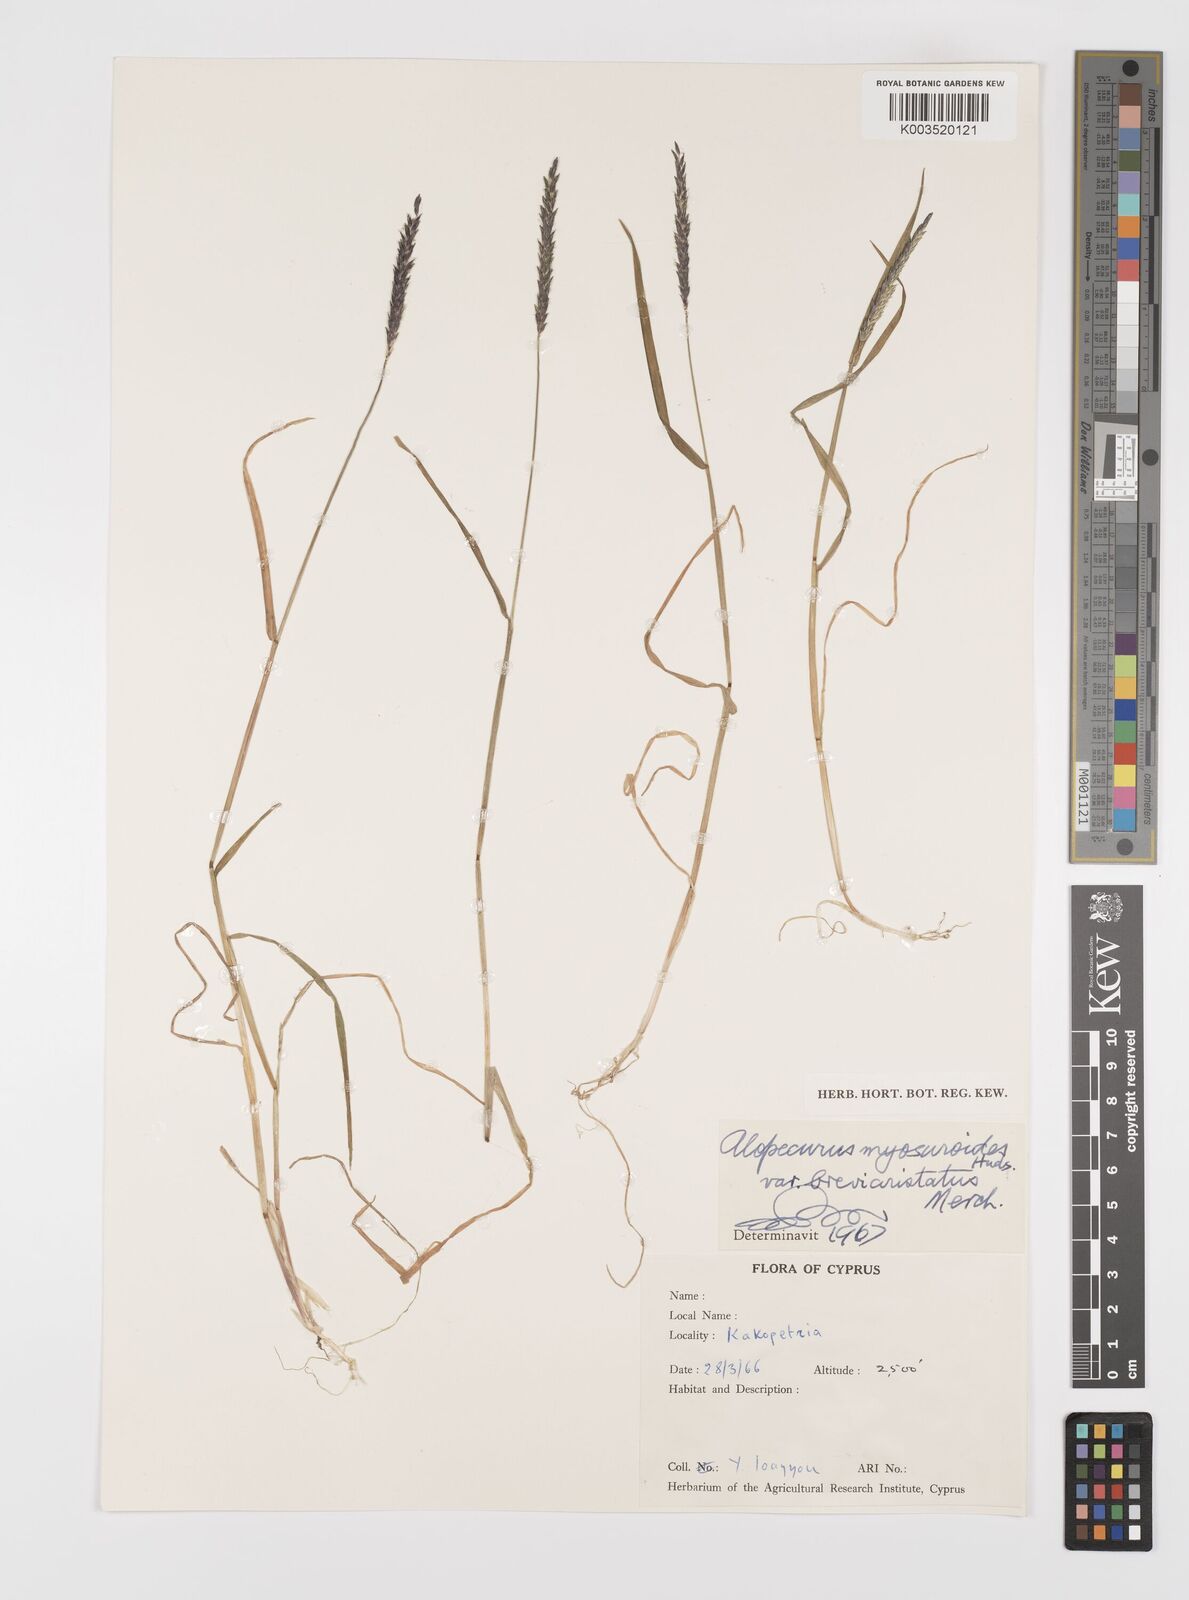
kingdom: Plantae
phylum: Tracheophyta
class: Liliopsida
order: Poales
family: Poaceae
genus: Alopecurus
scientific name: Alopecurus myosuroides
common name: Black-grass
